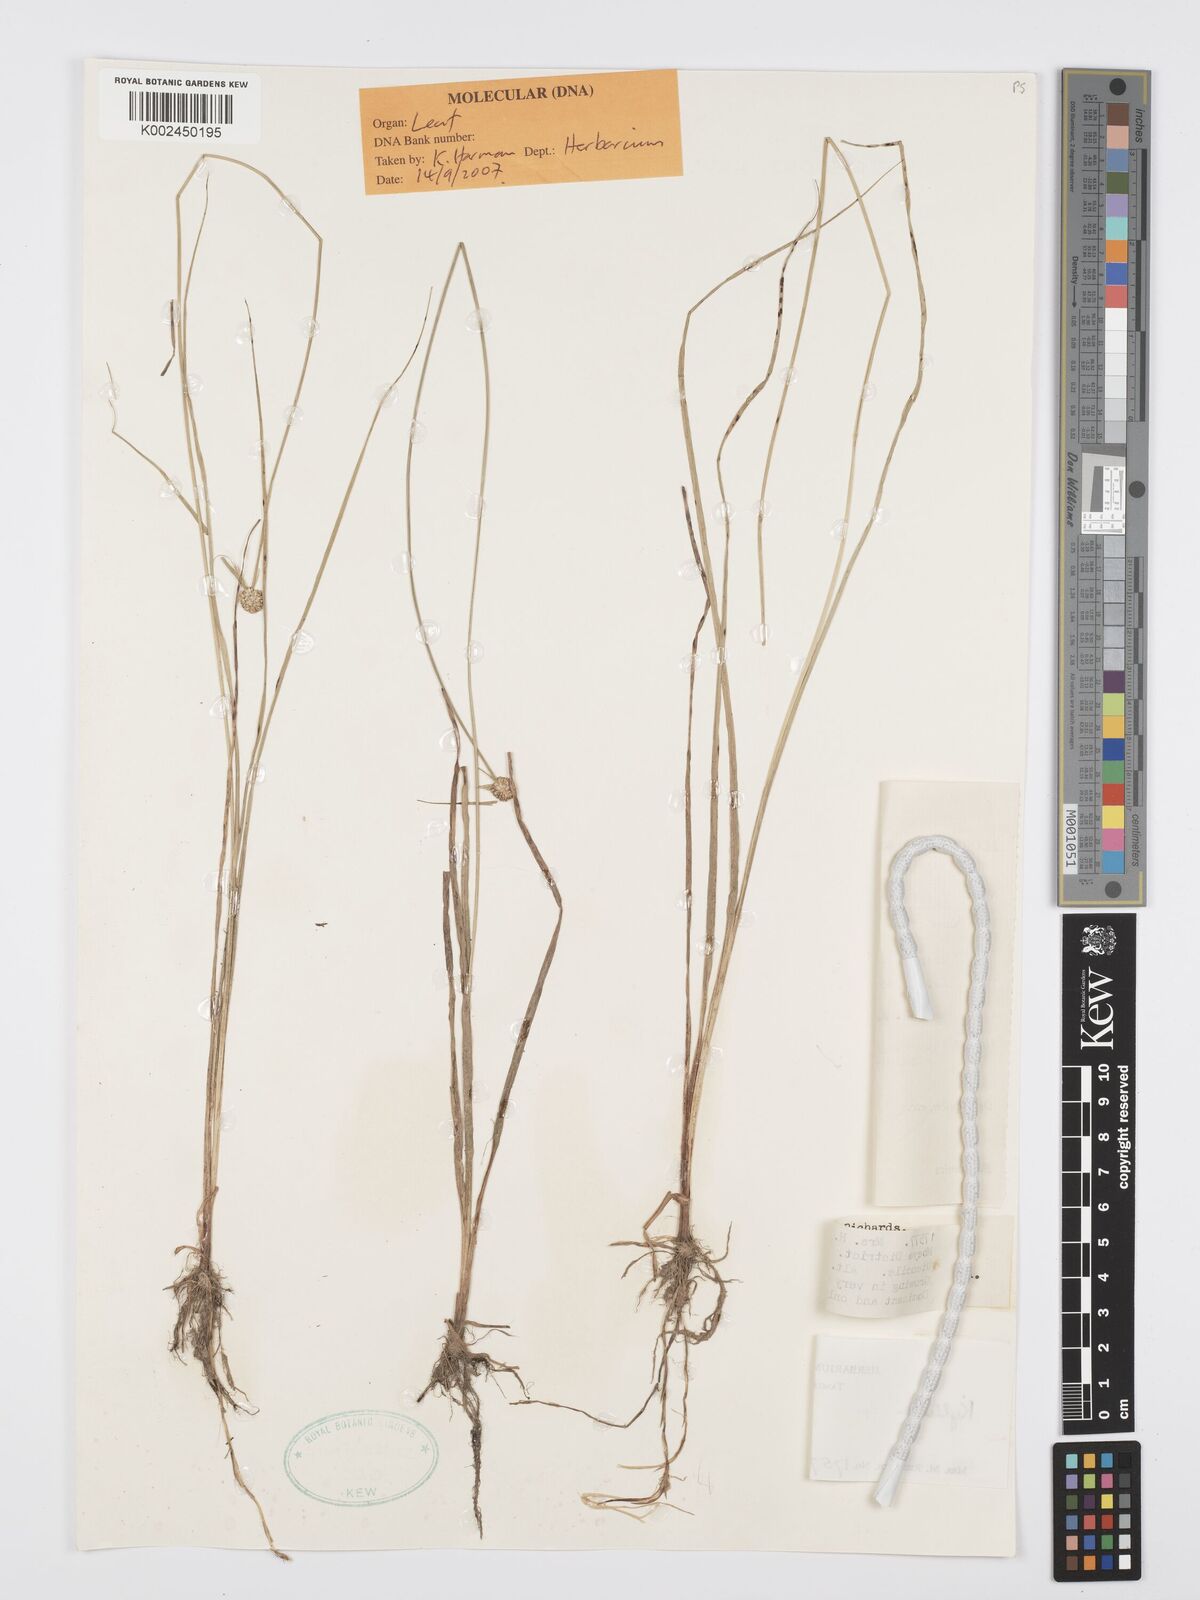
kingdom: Plantae
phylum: Tracheophyta
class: Liliopsida
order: Poales
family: Cyperaceae
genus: Cyperus
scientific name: Cyperus albiceps
